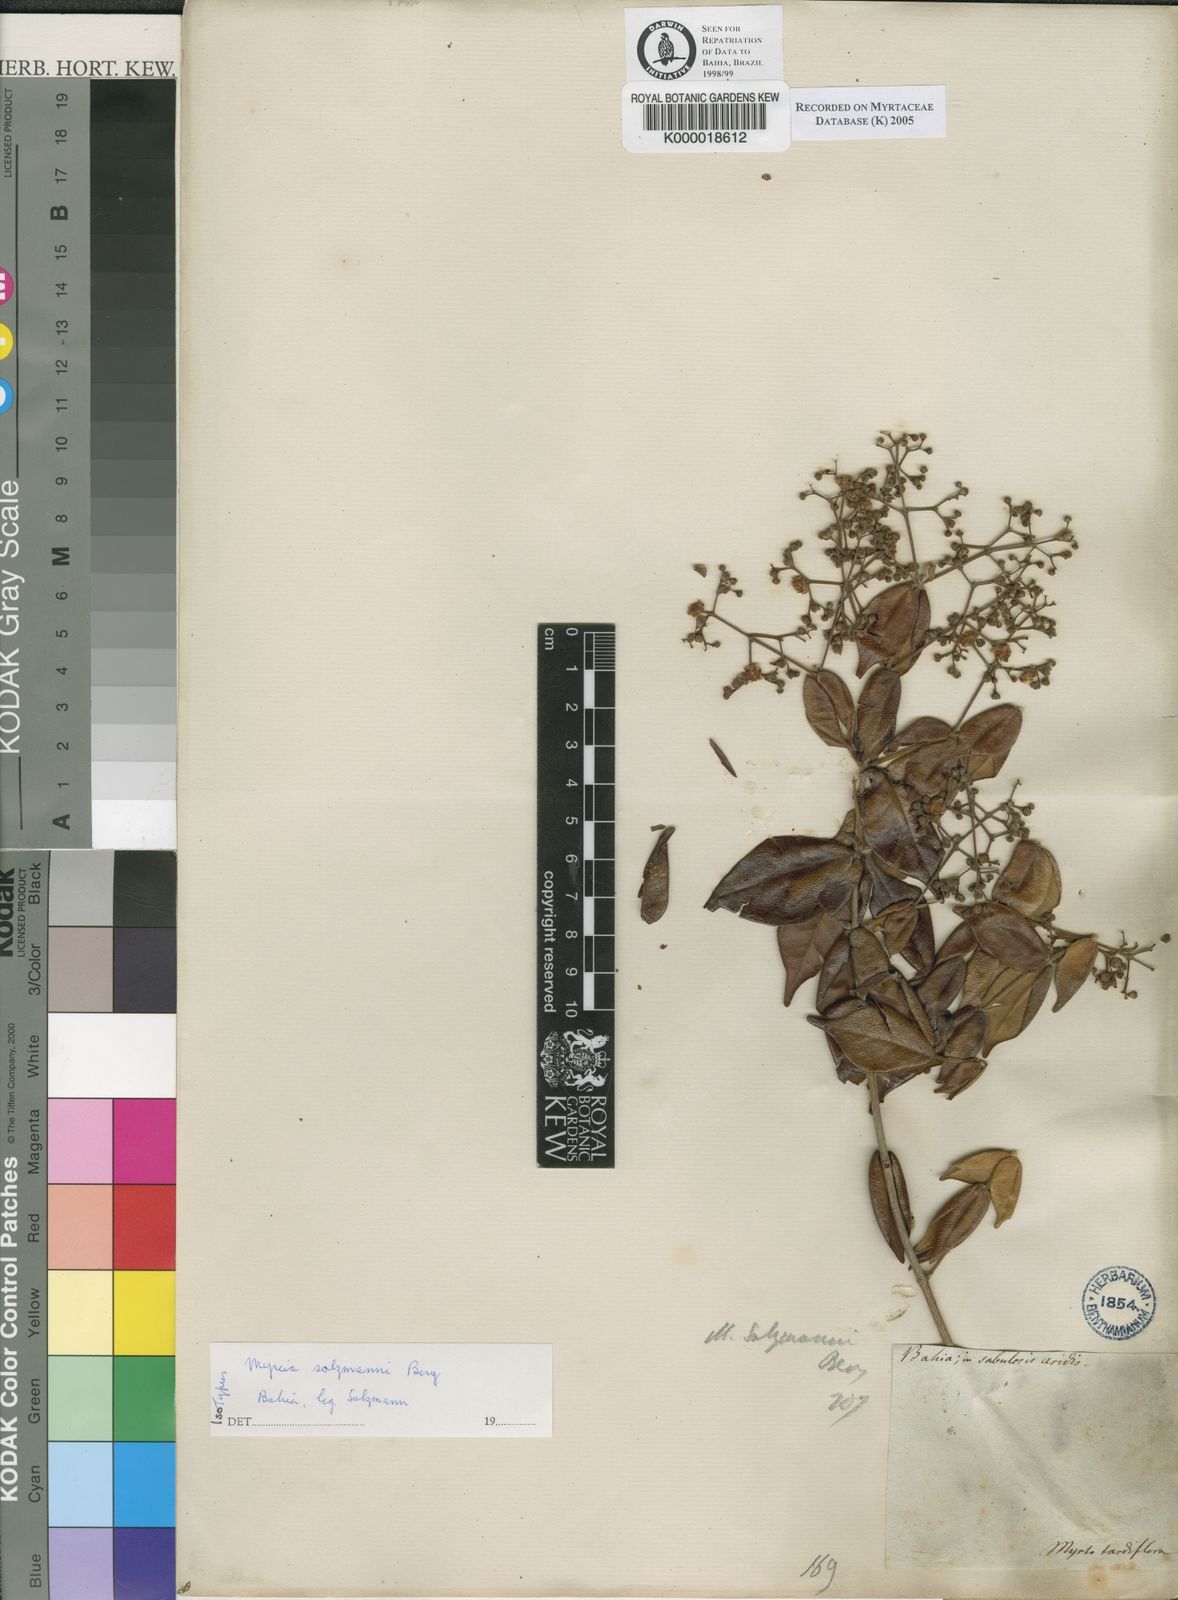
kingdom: Plantae
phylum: Tracheophyta
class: Magnoliopsida
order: Myrtales
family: Myrtaceae
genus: Myrcia
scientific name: Myrcia salzmannii
